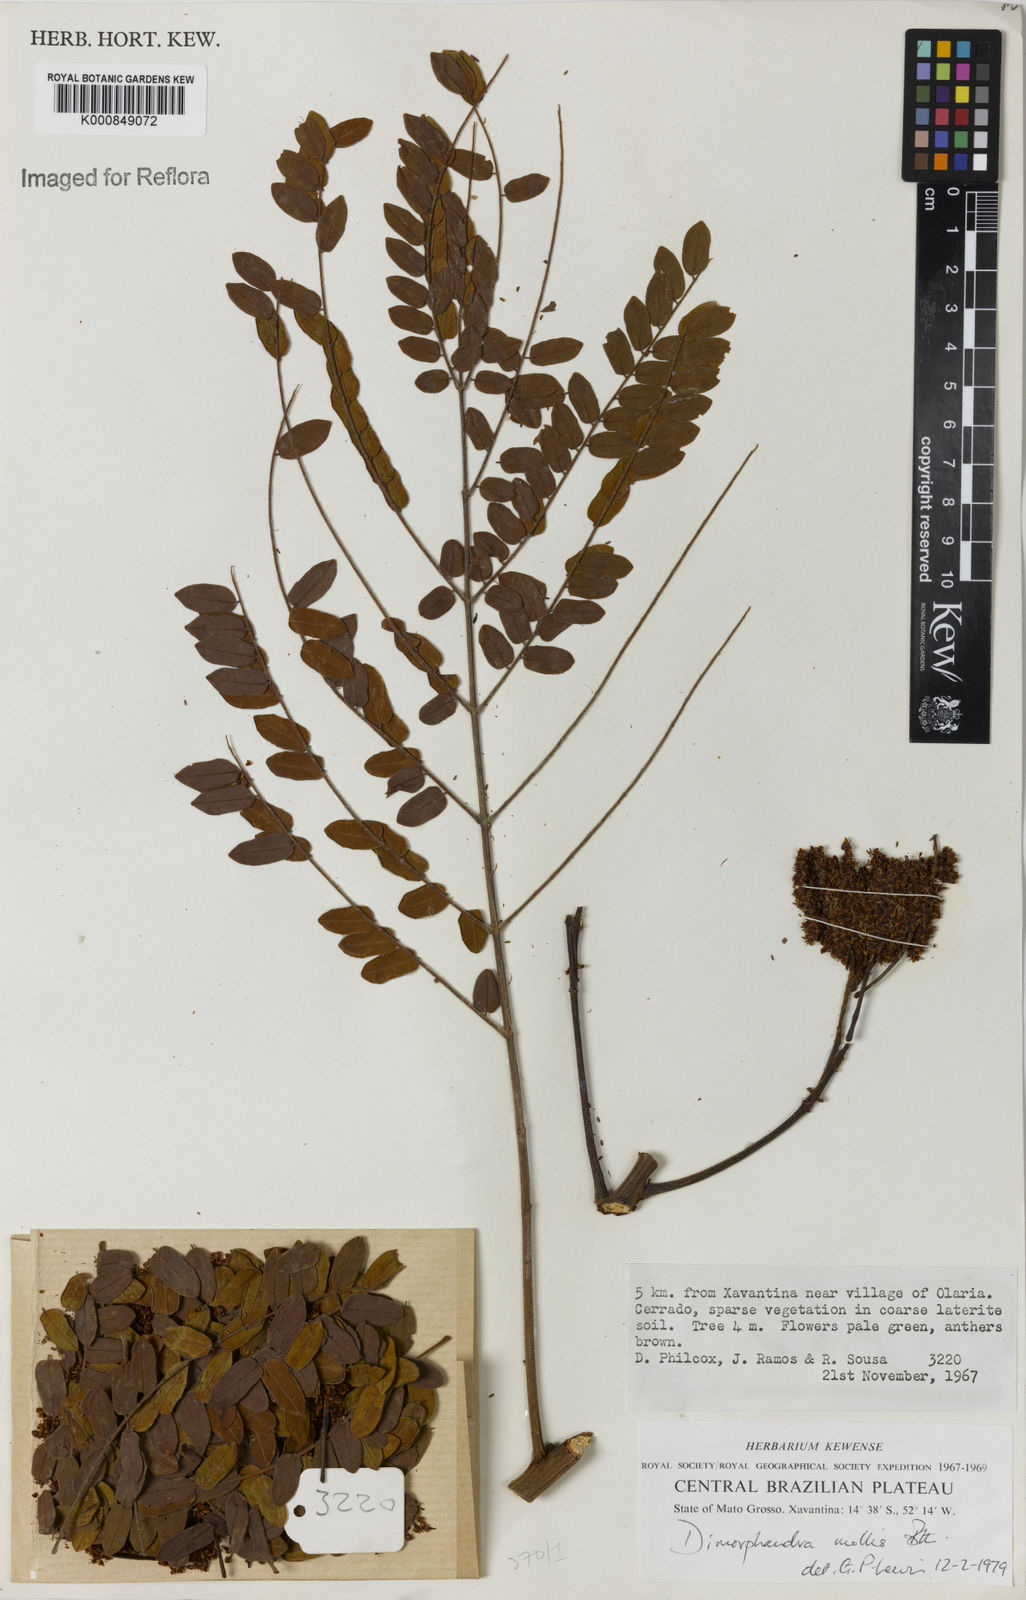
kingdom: Plantae
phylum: Tracheophyta
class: Magnoliopsida
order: Fabales
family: Fabaceae
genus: Dimorphandra
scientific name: Dimorphandra mollis
